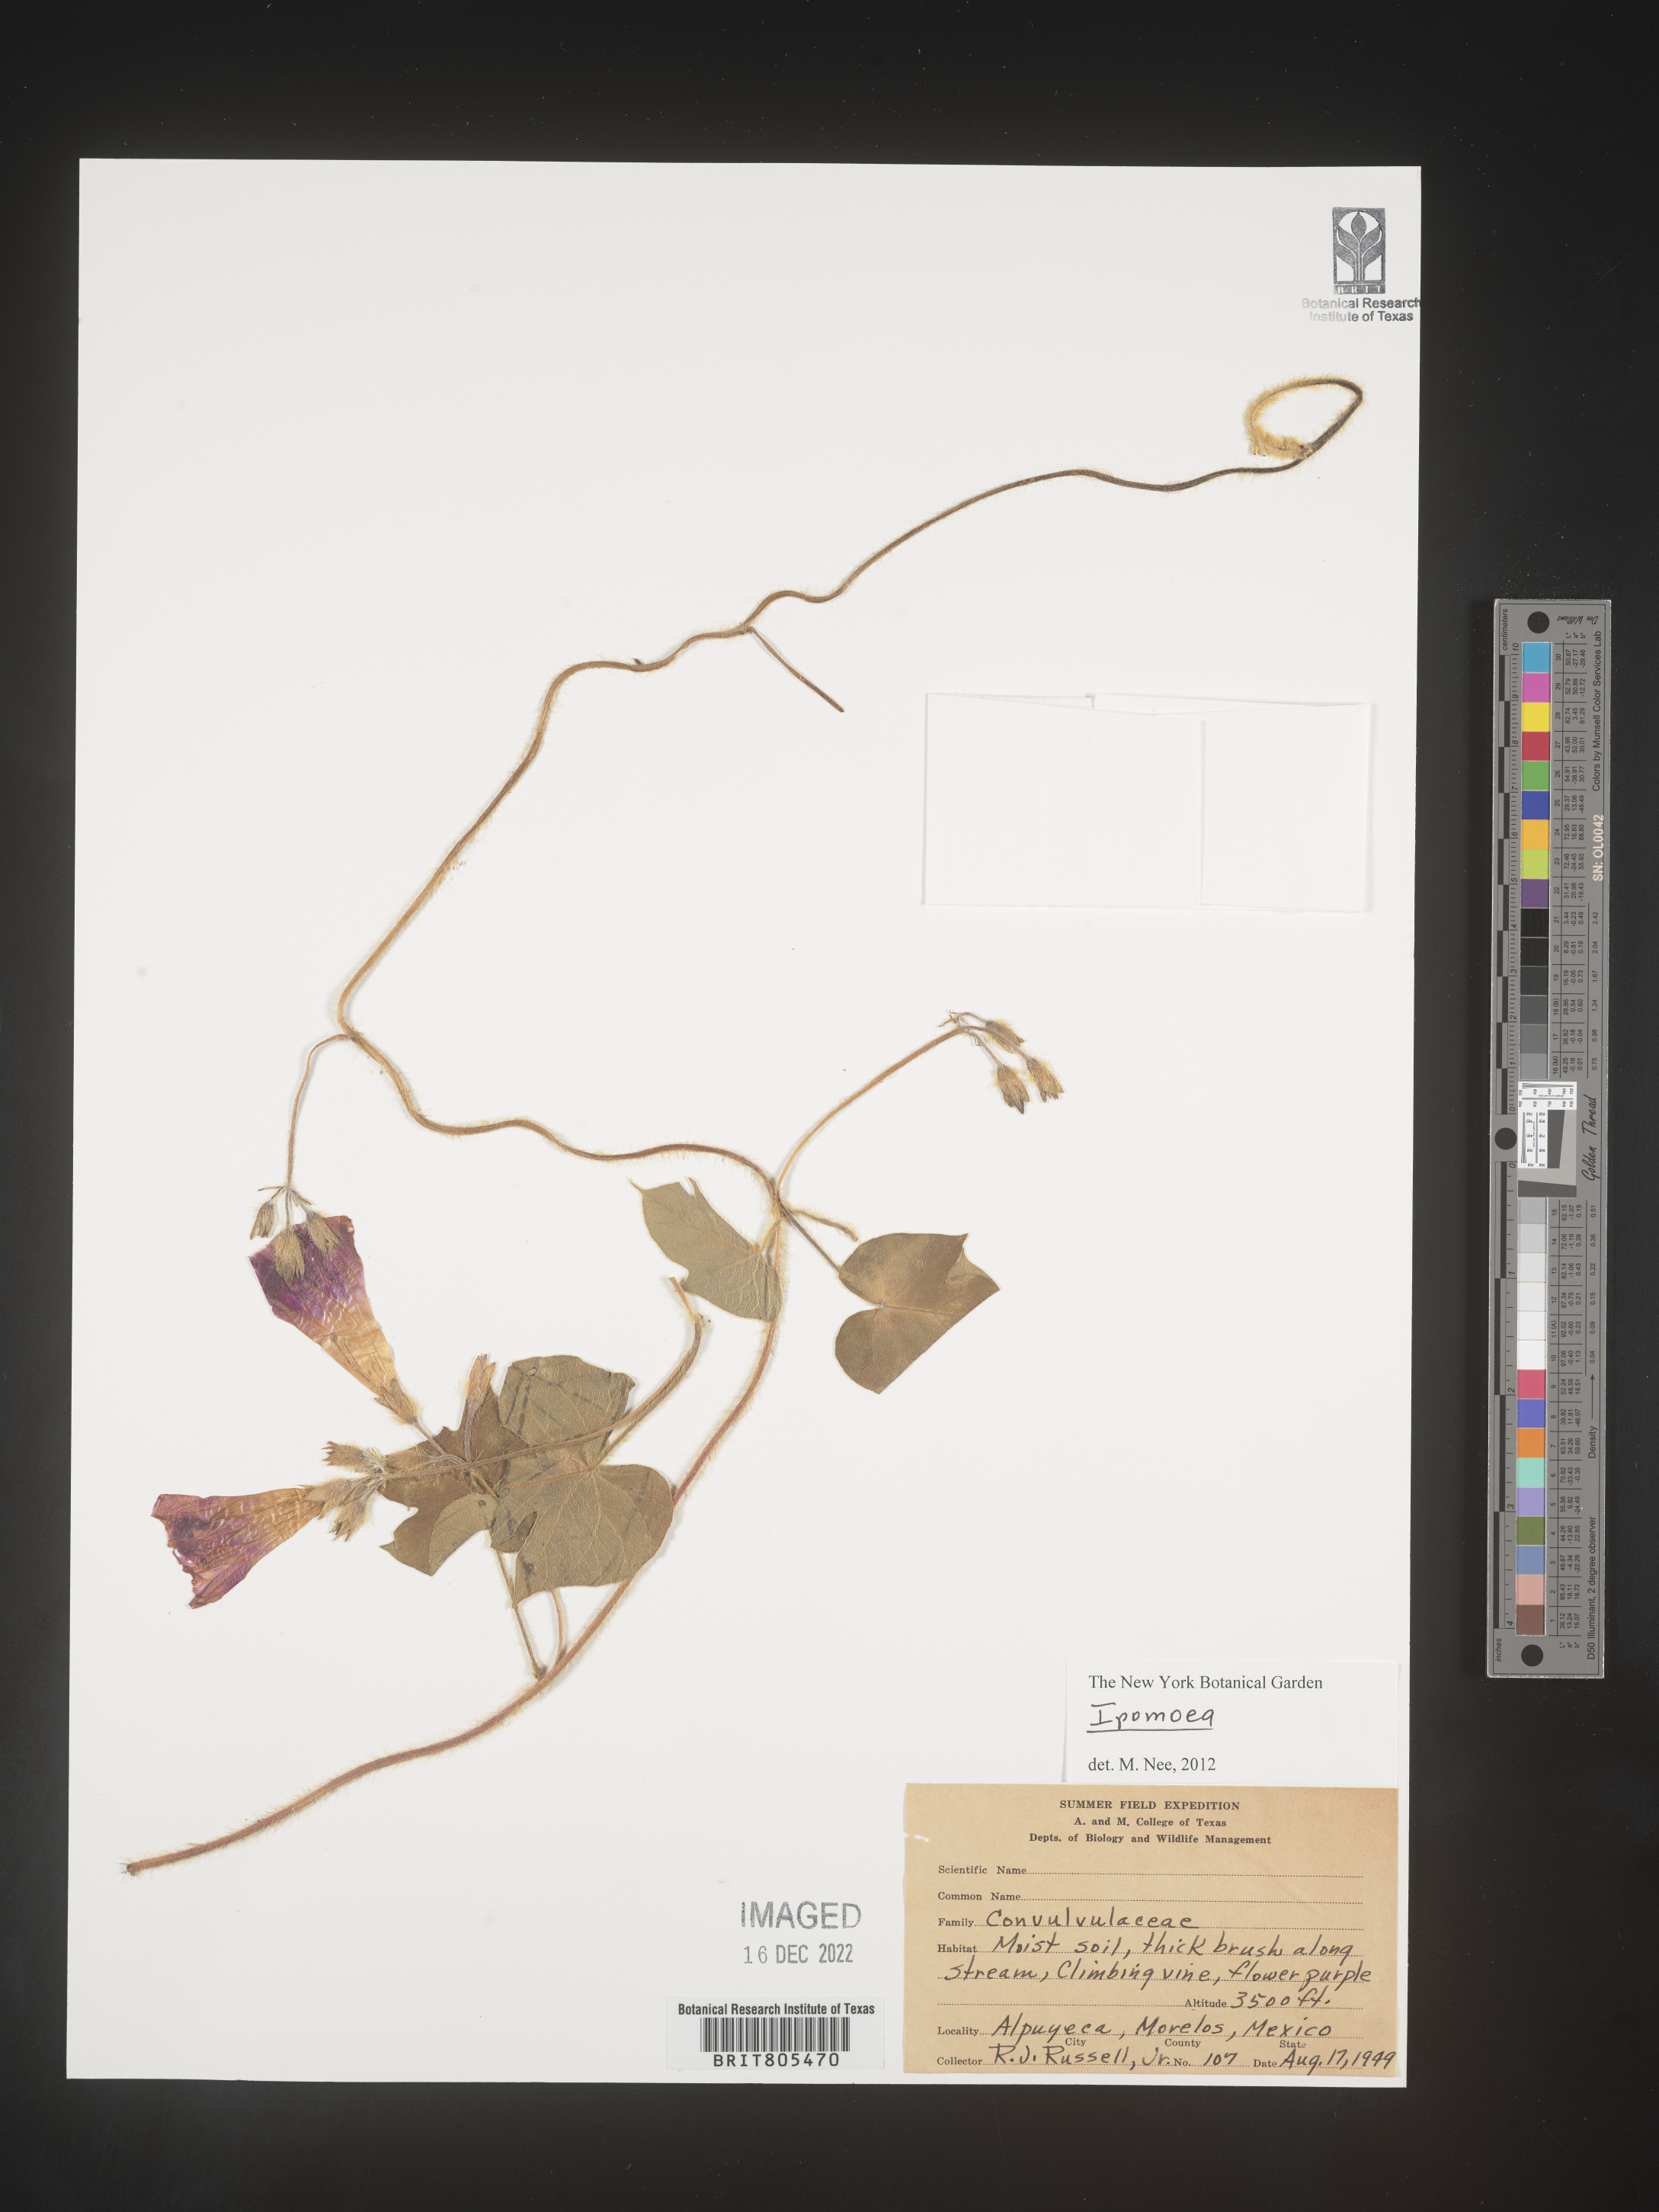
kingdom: Plantae
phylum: Tracheophyta
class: Magnoliopsida
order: Solanales
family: Convolvulaceae
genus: Ipomoea
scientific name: Ipomoea
